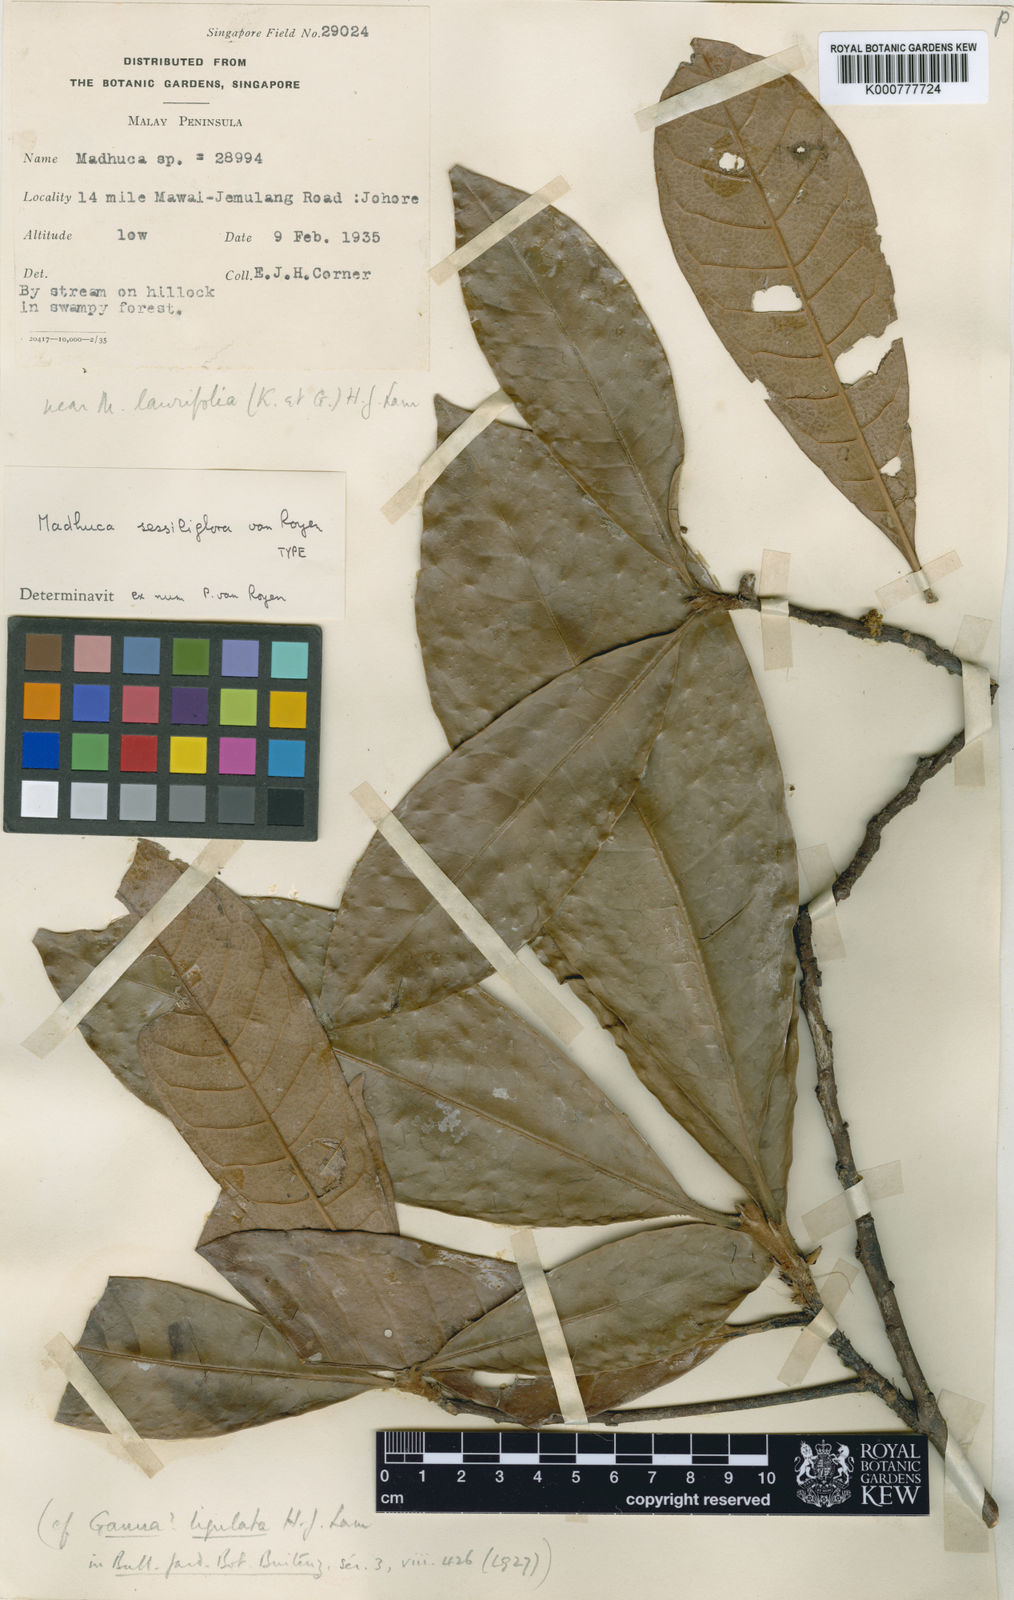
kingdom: Plantae
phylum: Tracheophyta
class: Magnoliopsida
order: Ericales
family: Sapotaceae
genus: Madhuca
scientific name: Madhuca sessiliflora
